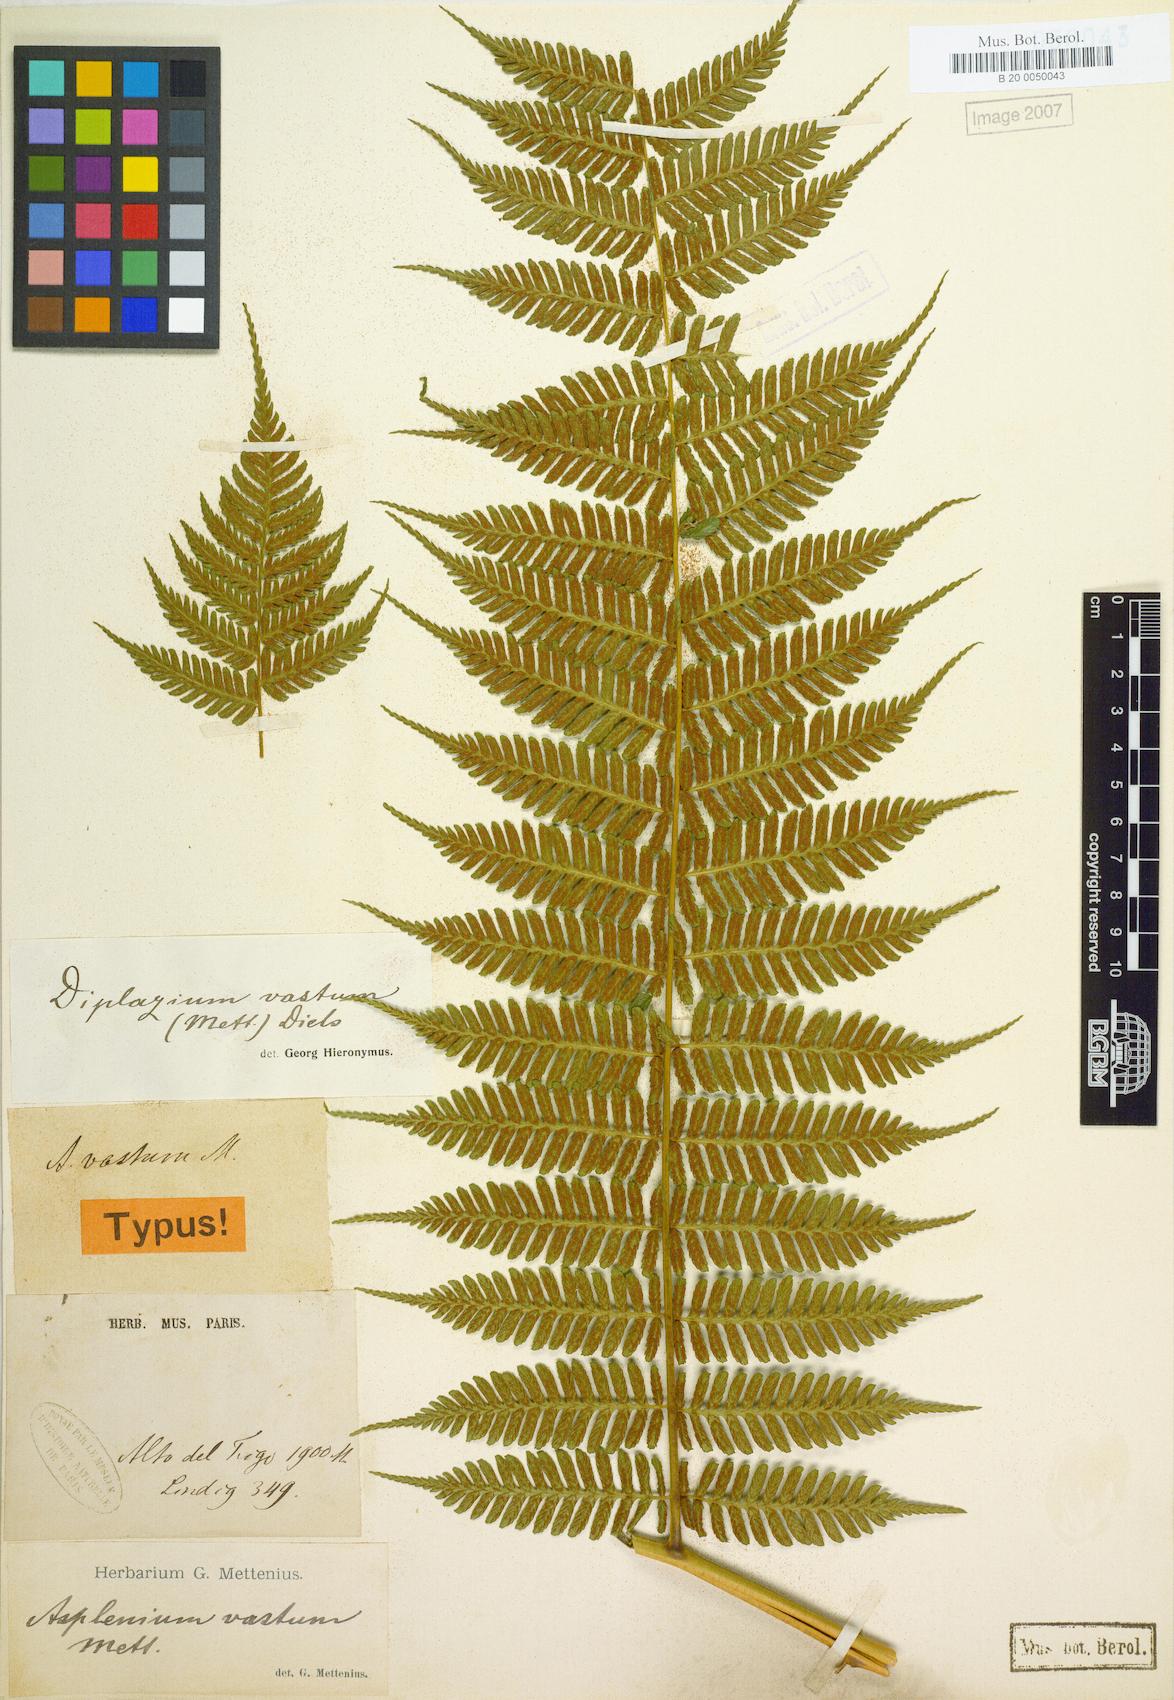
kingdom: Plantae
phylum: Tracheophyta
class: Polypodiopsida
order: Polypodiales
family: Athyriaceae
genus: Diplazium
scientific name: Diplazium vastum
